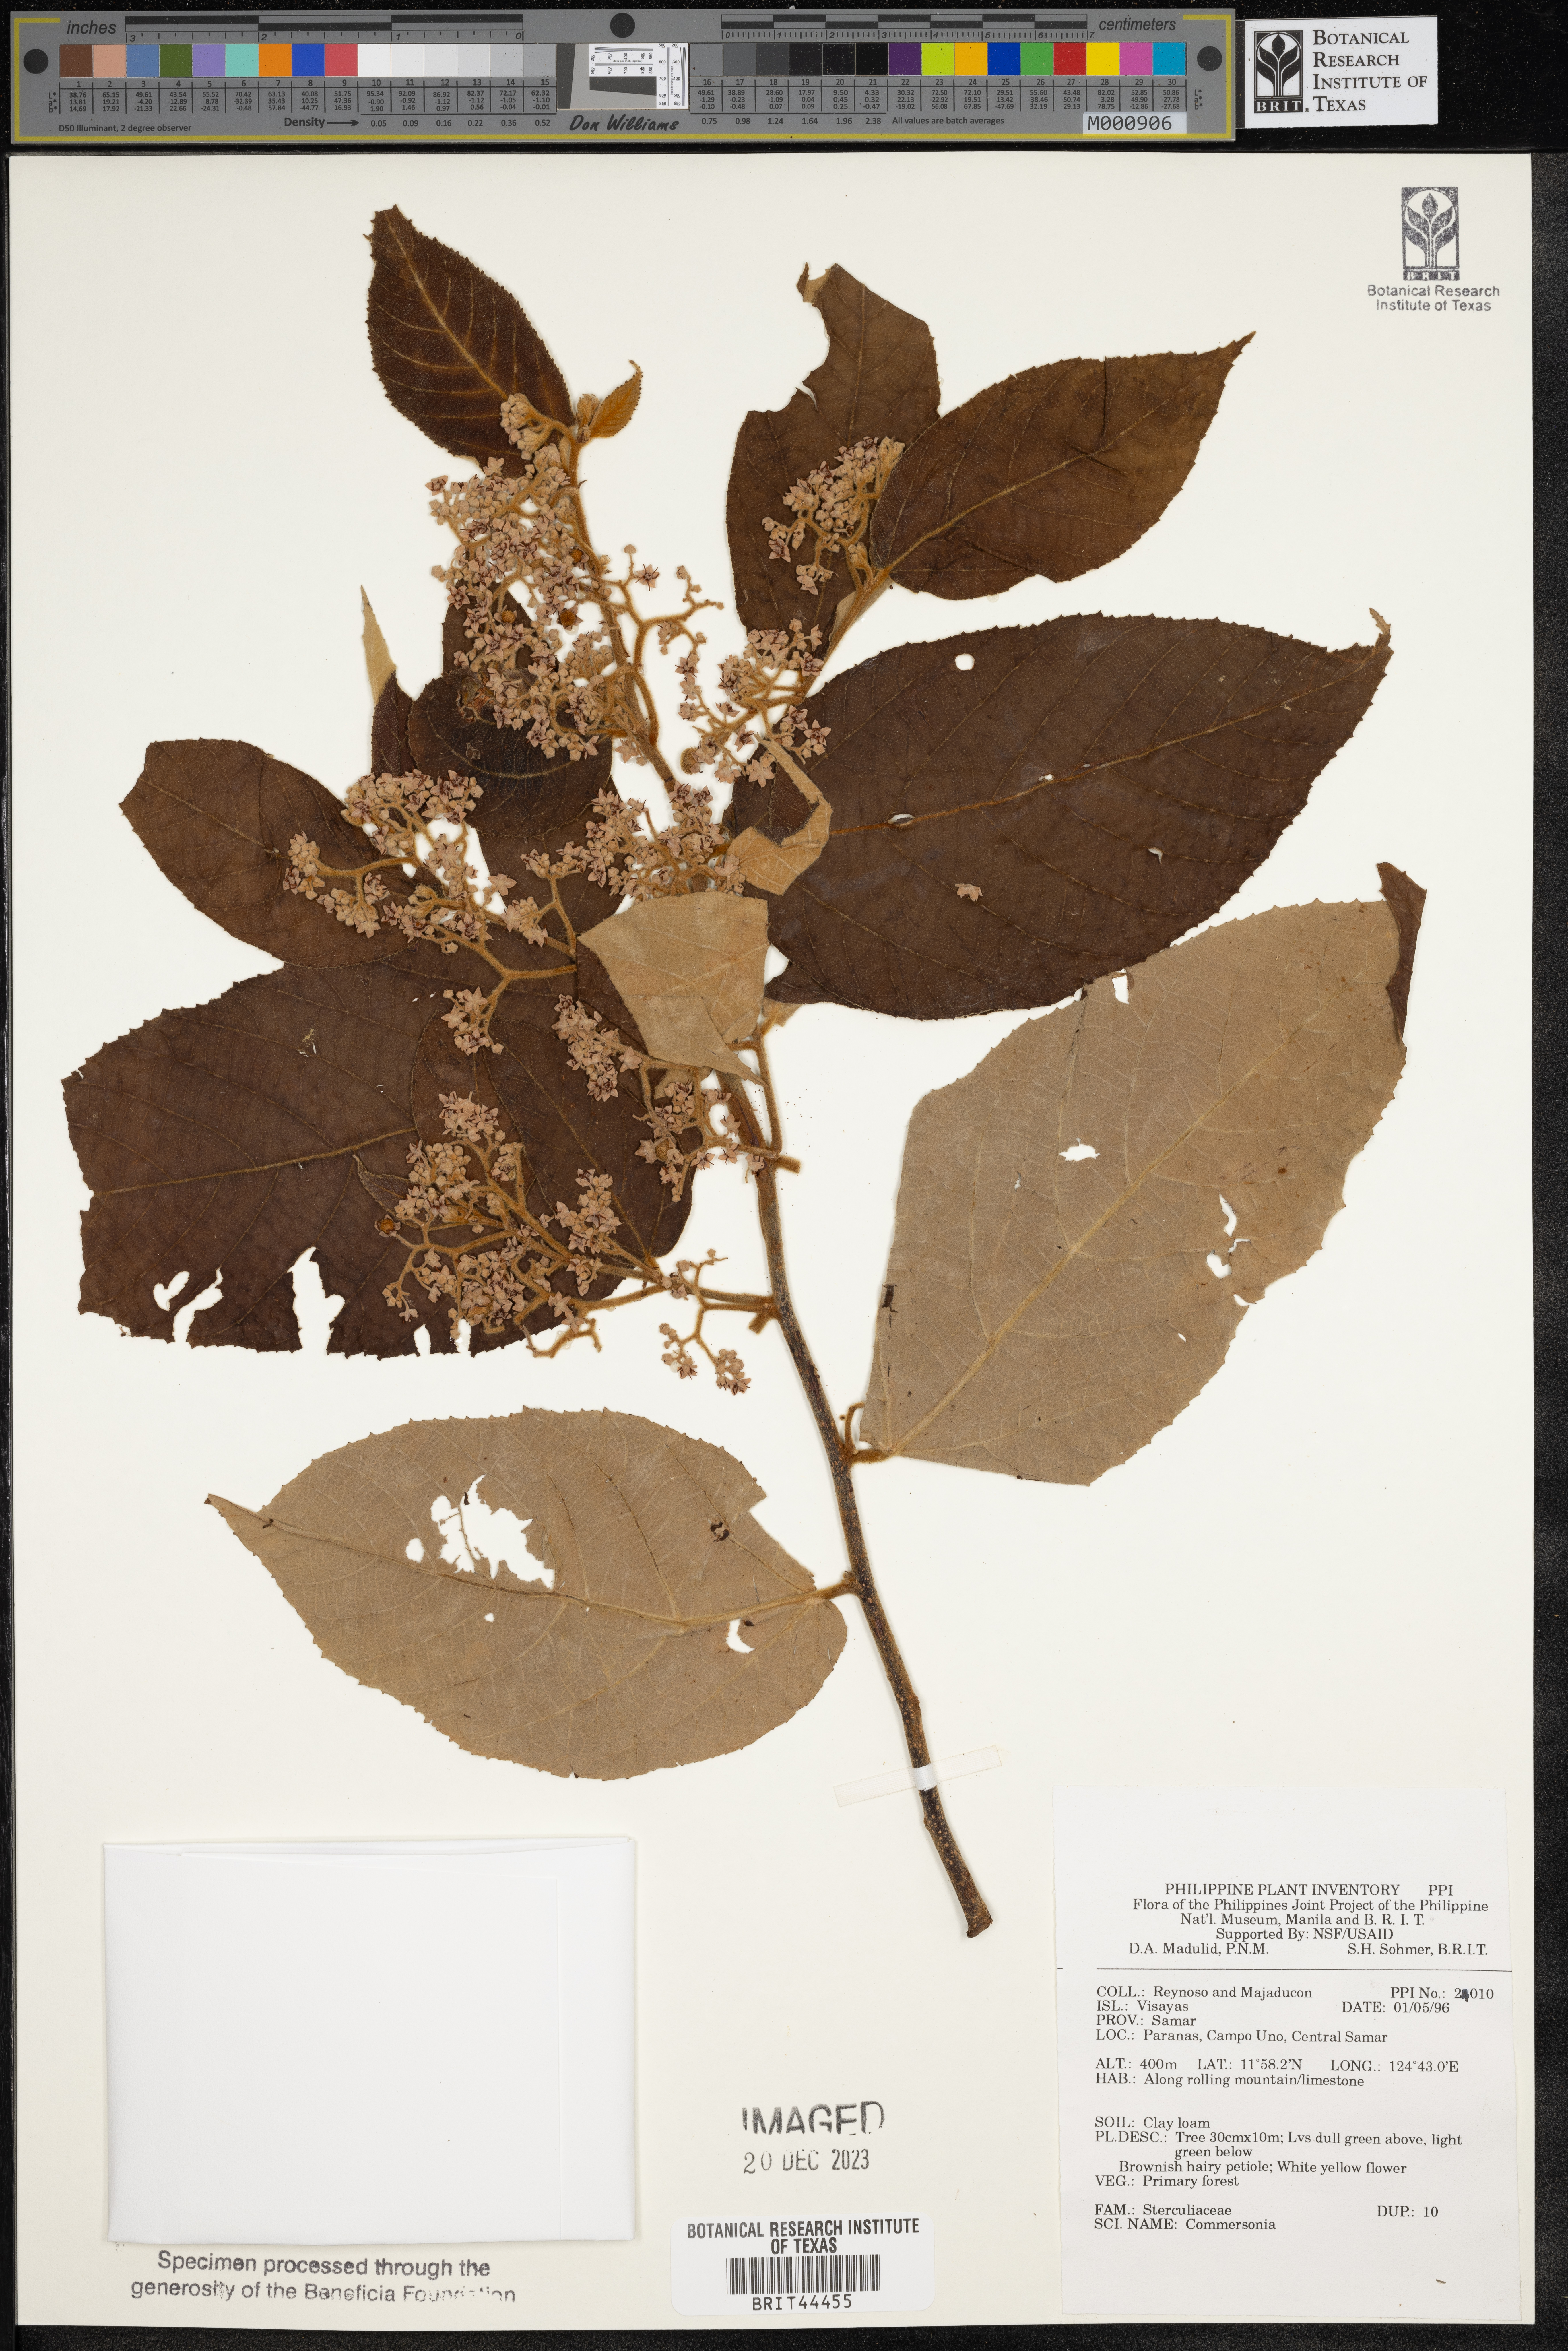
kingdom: Plantae
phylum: Tracheophyta
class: Magnoliopsida
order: Malvales
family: Malvaceae
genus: Commersonia
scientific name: Commersonia
